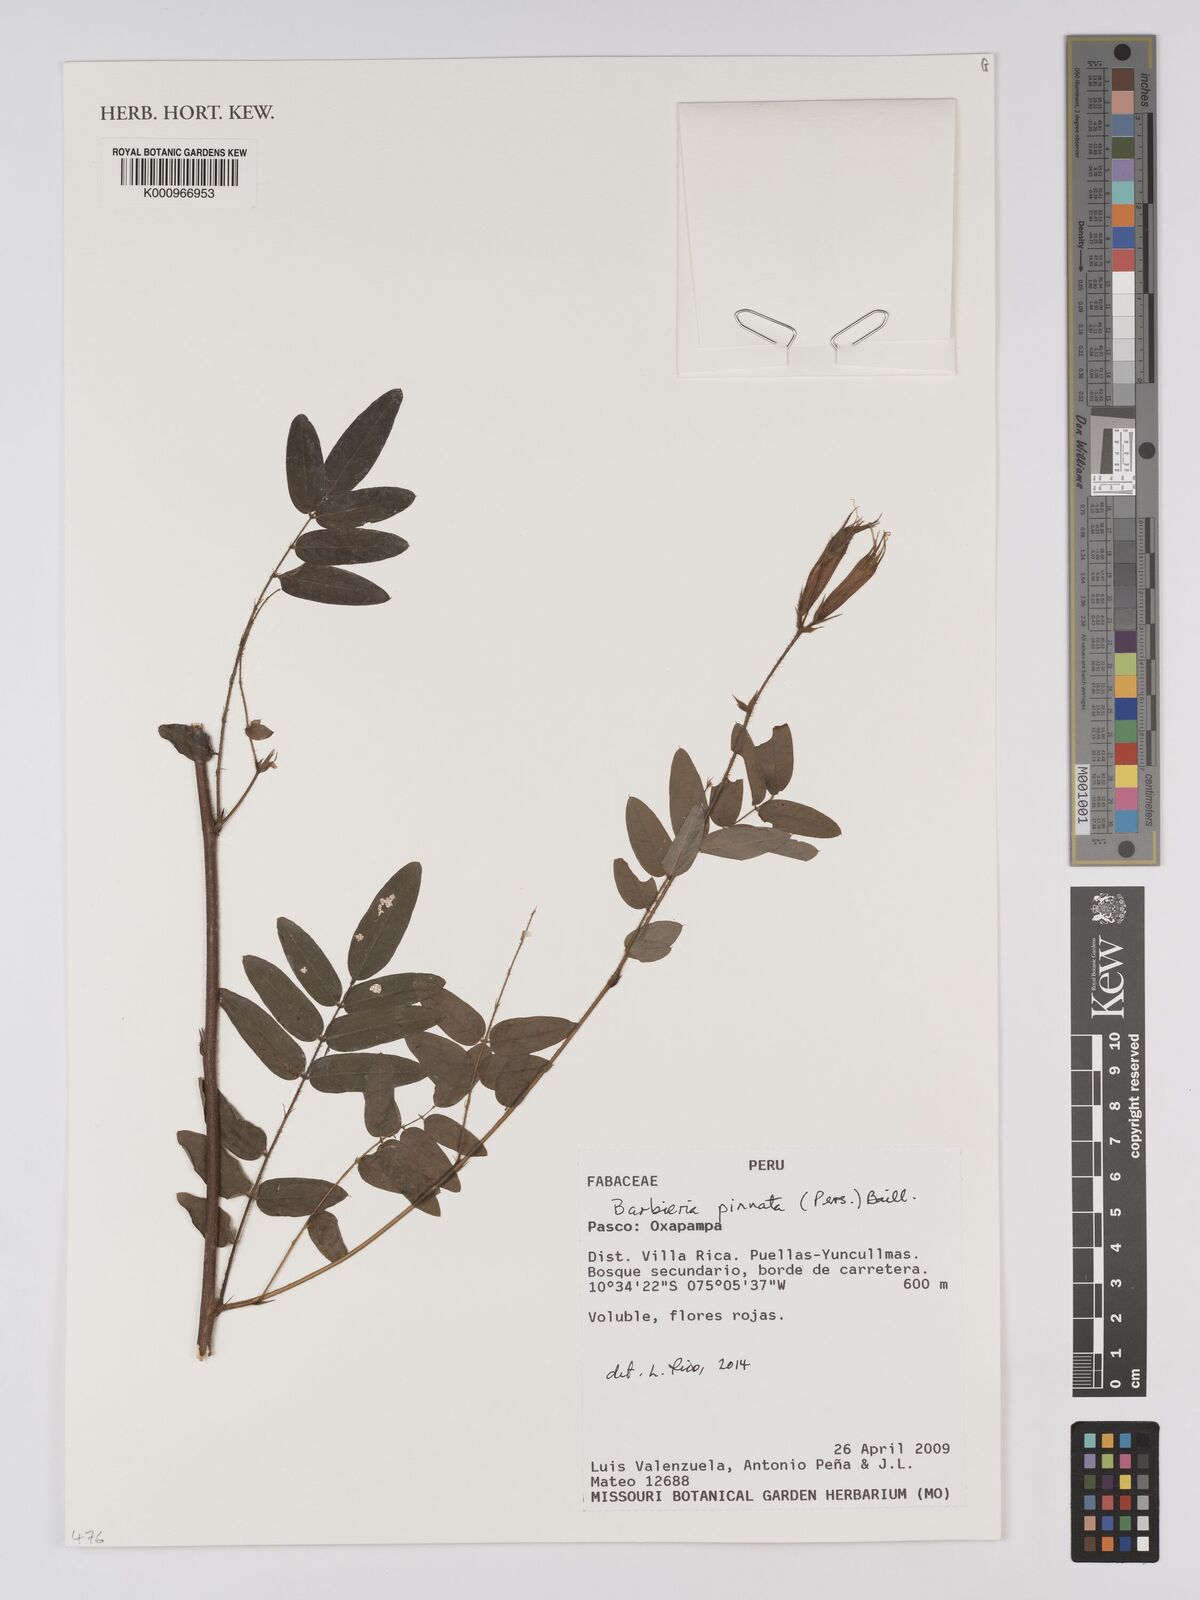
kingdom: Plantae
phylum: Tracheophyta
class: Magnoliopsida
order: Fabales
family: Fabaceae
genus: Barbieria
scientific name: Barbieria pinnata
